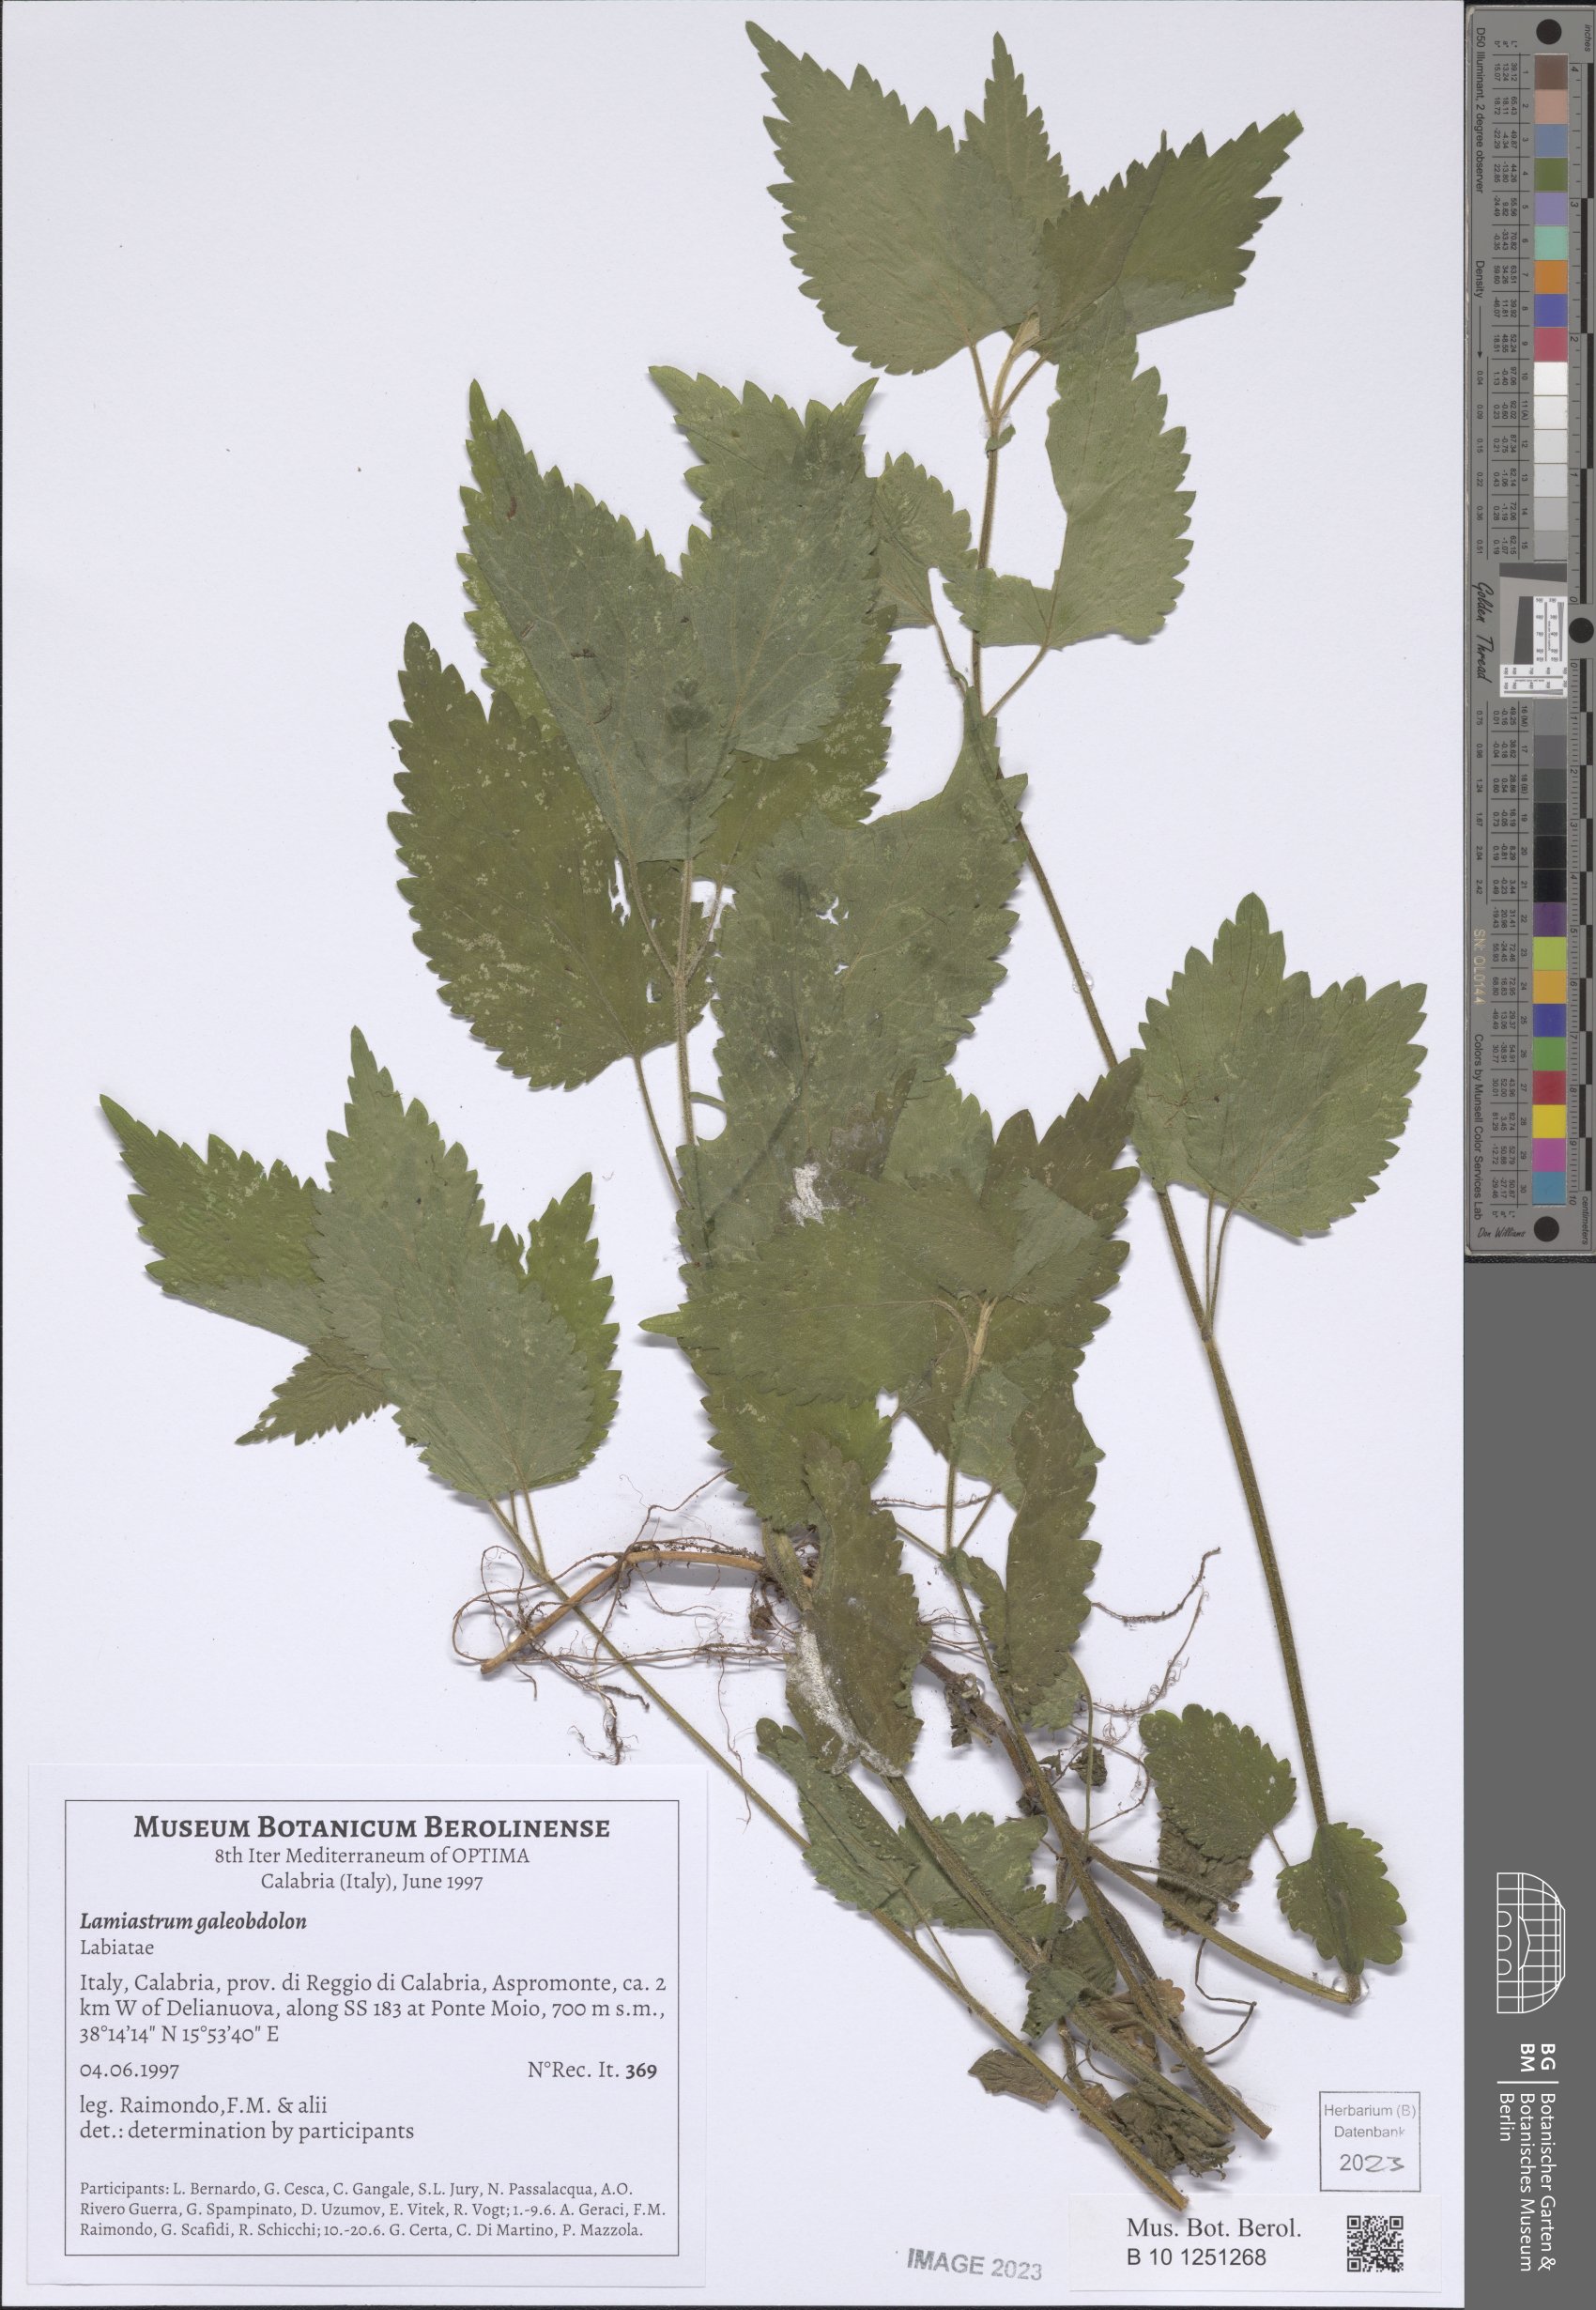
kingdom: Plantae
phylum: Tracheophyta
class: Magnoliopsida
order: Lamiales
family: Lamiaceae
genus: Lamium
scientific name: Lamium galeobdolon
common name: Yellow archangel
